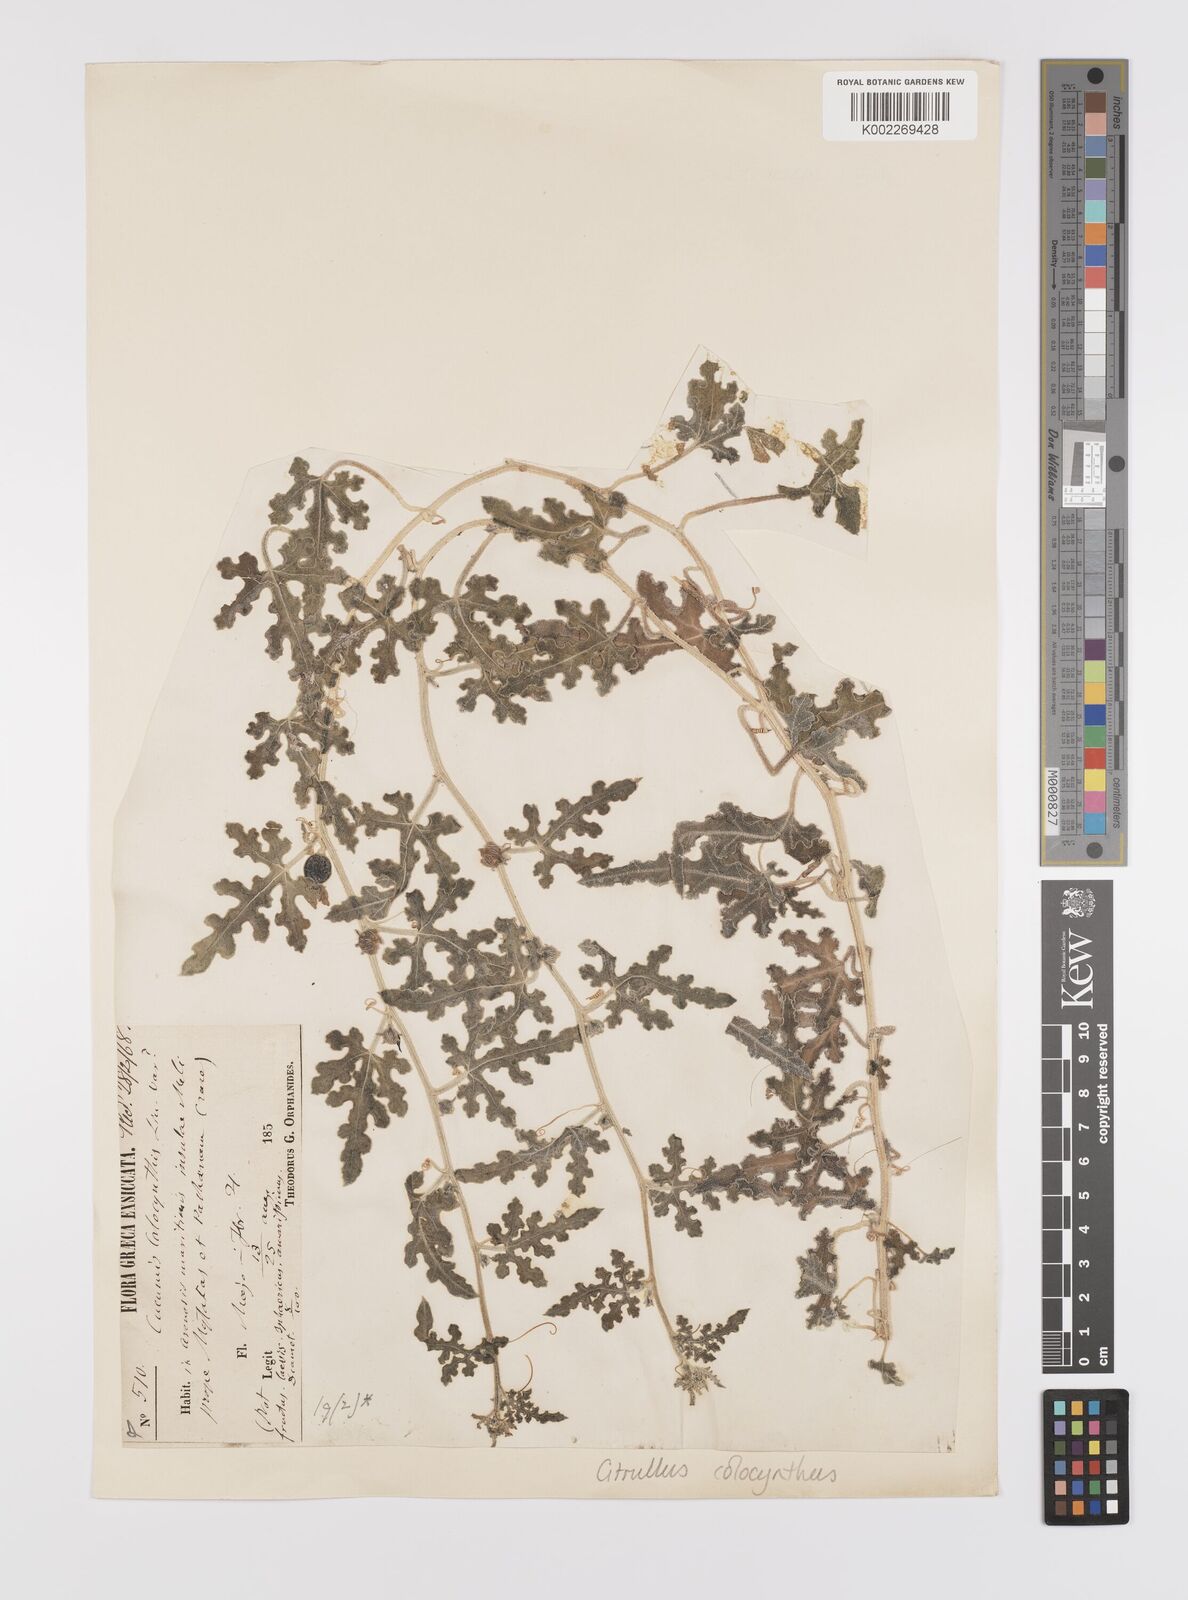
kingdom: Plantae
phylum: Tracheophyta
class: Magnoliopsida
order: Cucurbitales
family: Cucurbitaceae
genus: Citrullus
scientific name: Citrullus colocynthis
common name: Colocynth
